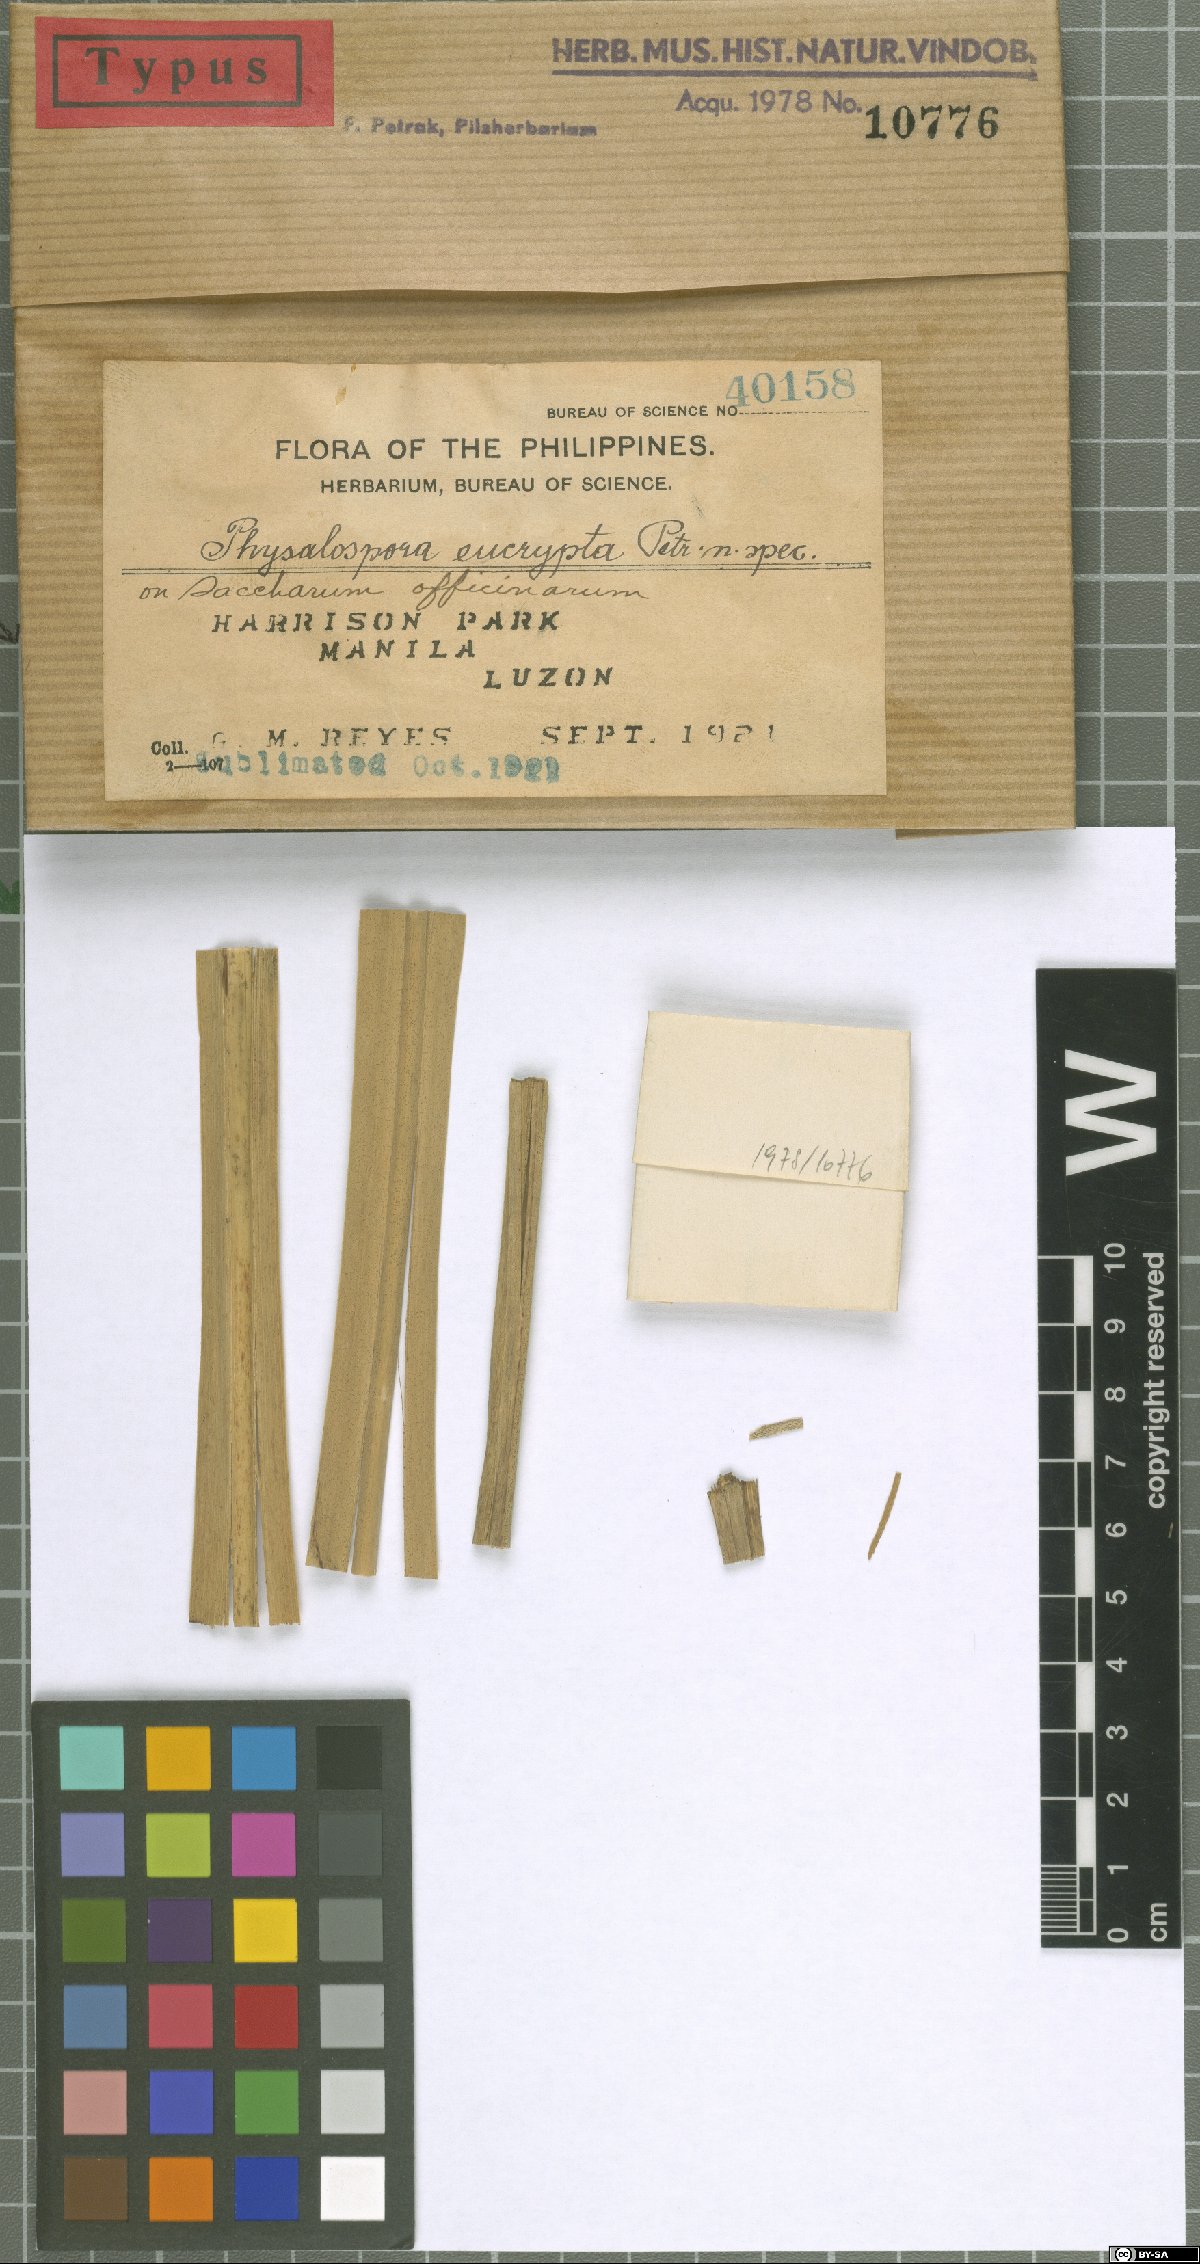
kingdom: Fungi
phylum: Ascomycota
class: Dothideomycetes
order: Botryosphaeriales
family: Phyllostictaceae
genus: Guignardia
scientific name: Guignardia eucrypta
